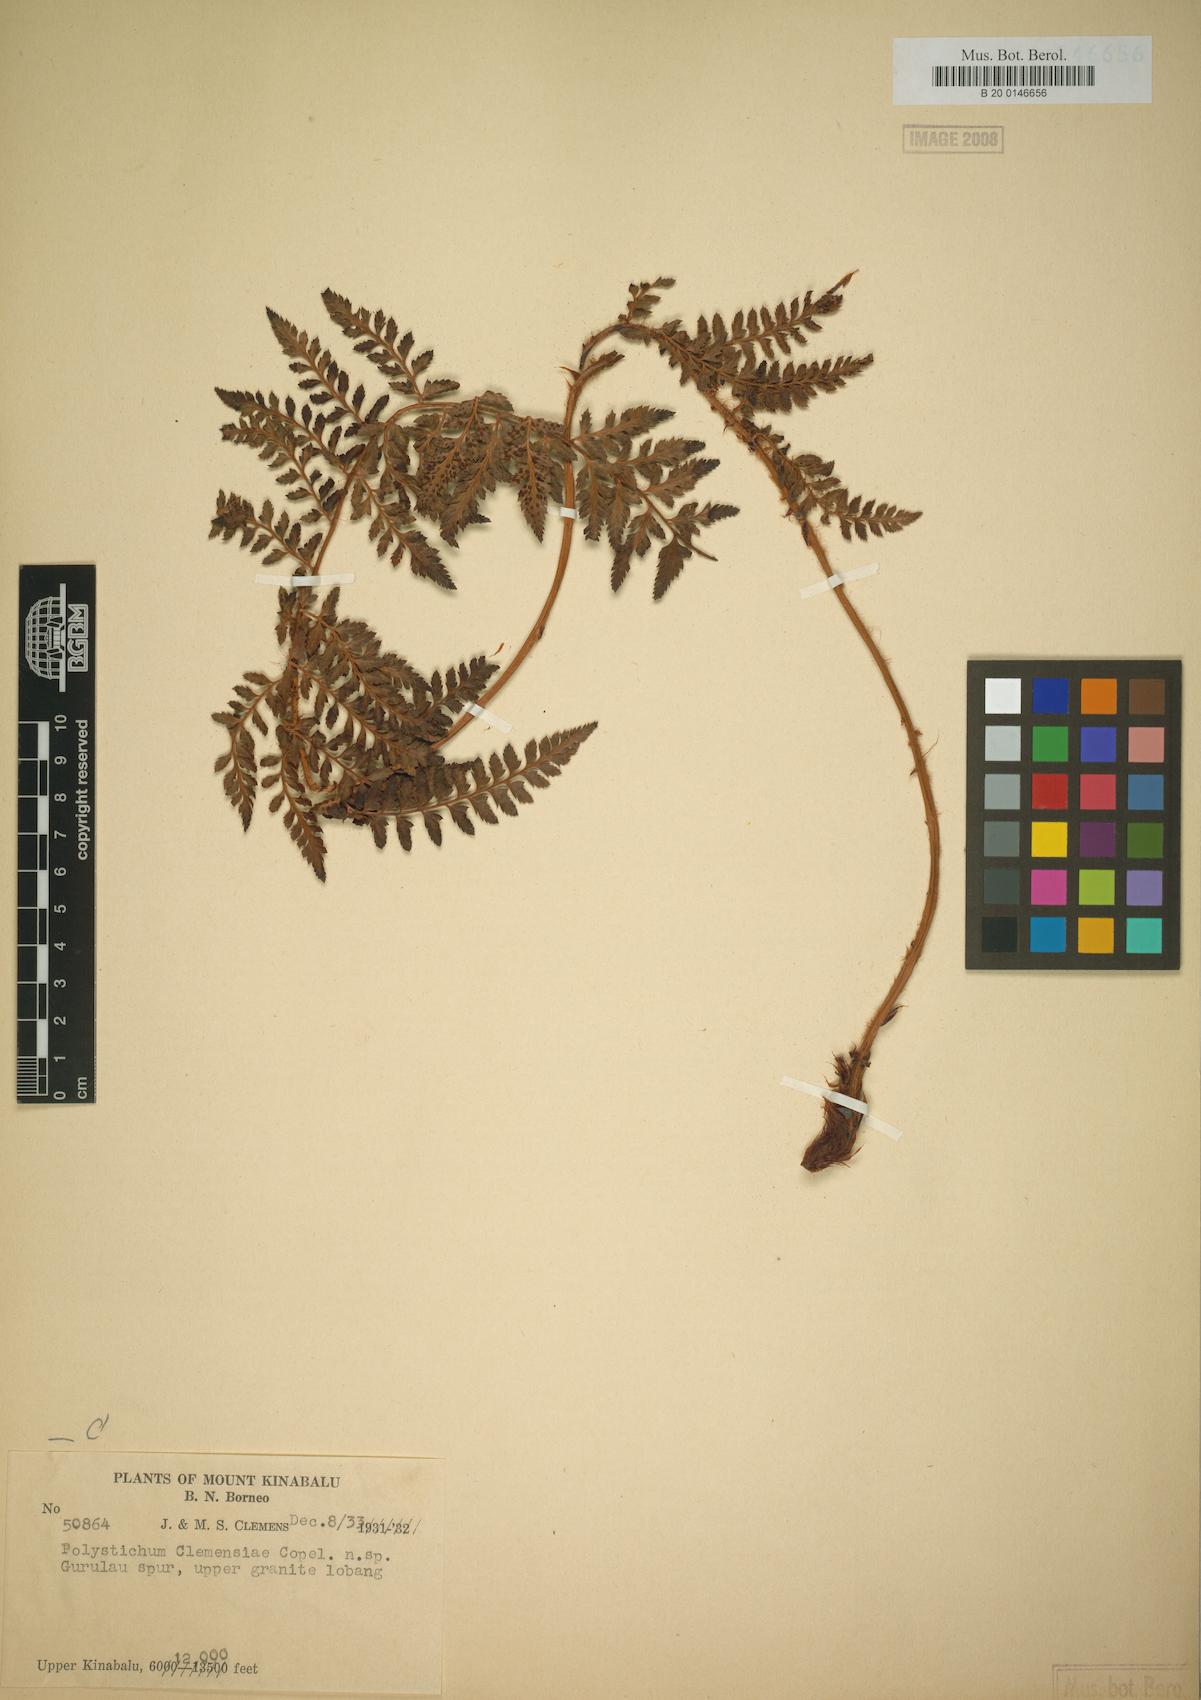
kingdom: Plantae
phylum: Tracheophyta
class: Polypodiopsida
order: Polypodiales
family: Dryopteridaceae
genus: Polystichum
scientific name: Polystichum kinabaluense
